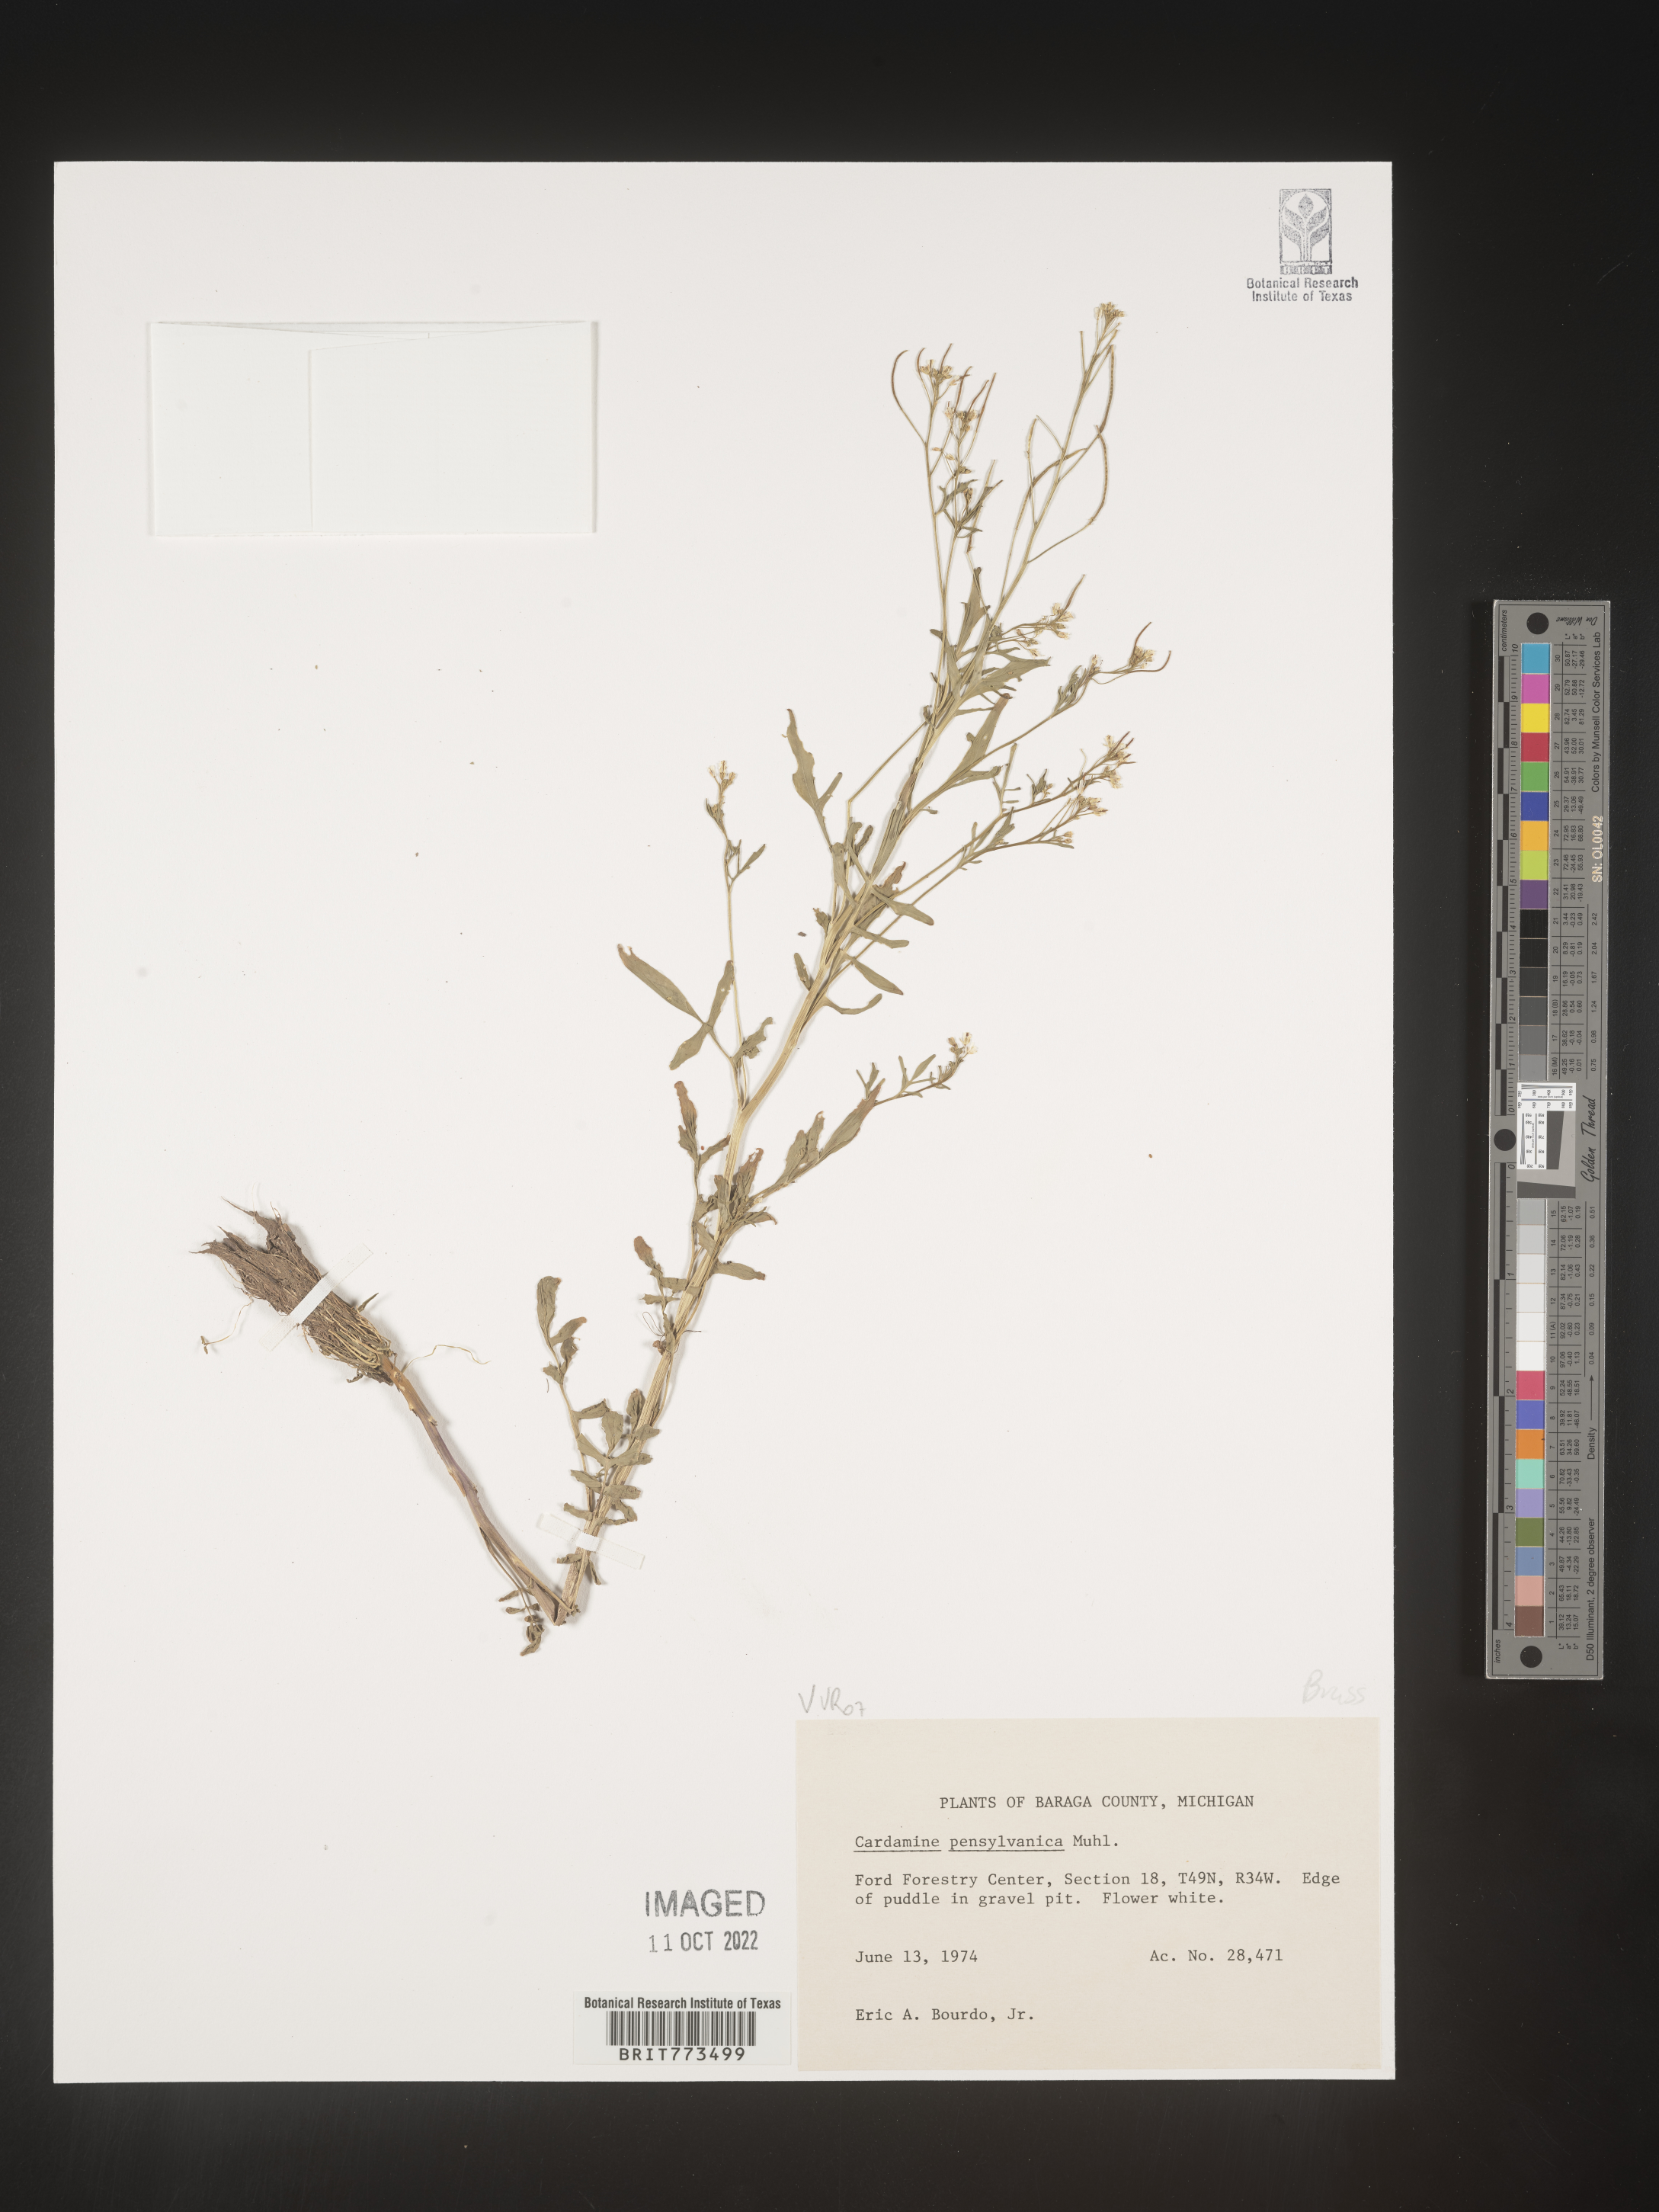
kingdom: Plantae
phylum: Tracheophyta
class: Magnoliopsida
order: Brassicales
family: Brassicaceae
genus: Cardamine
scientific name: Cardamine pensylvanica
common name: Pennsylvania bittercress
